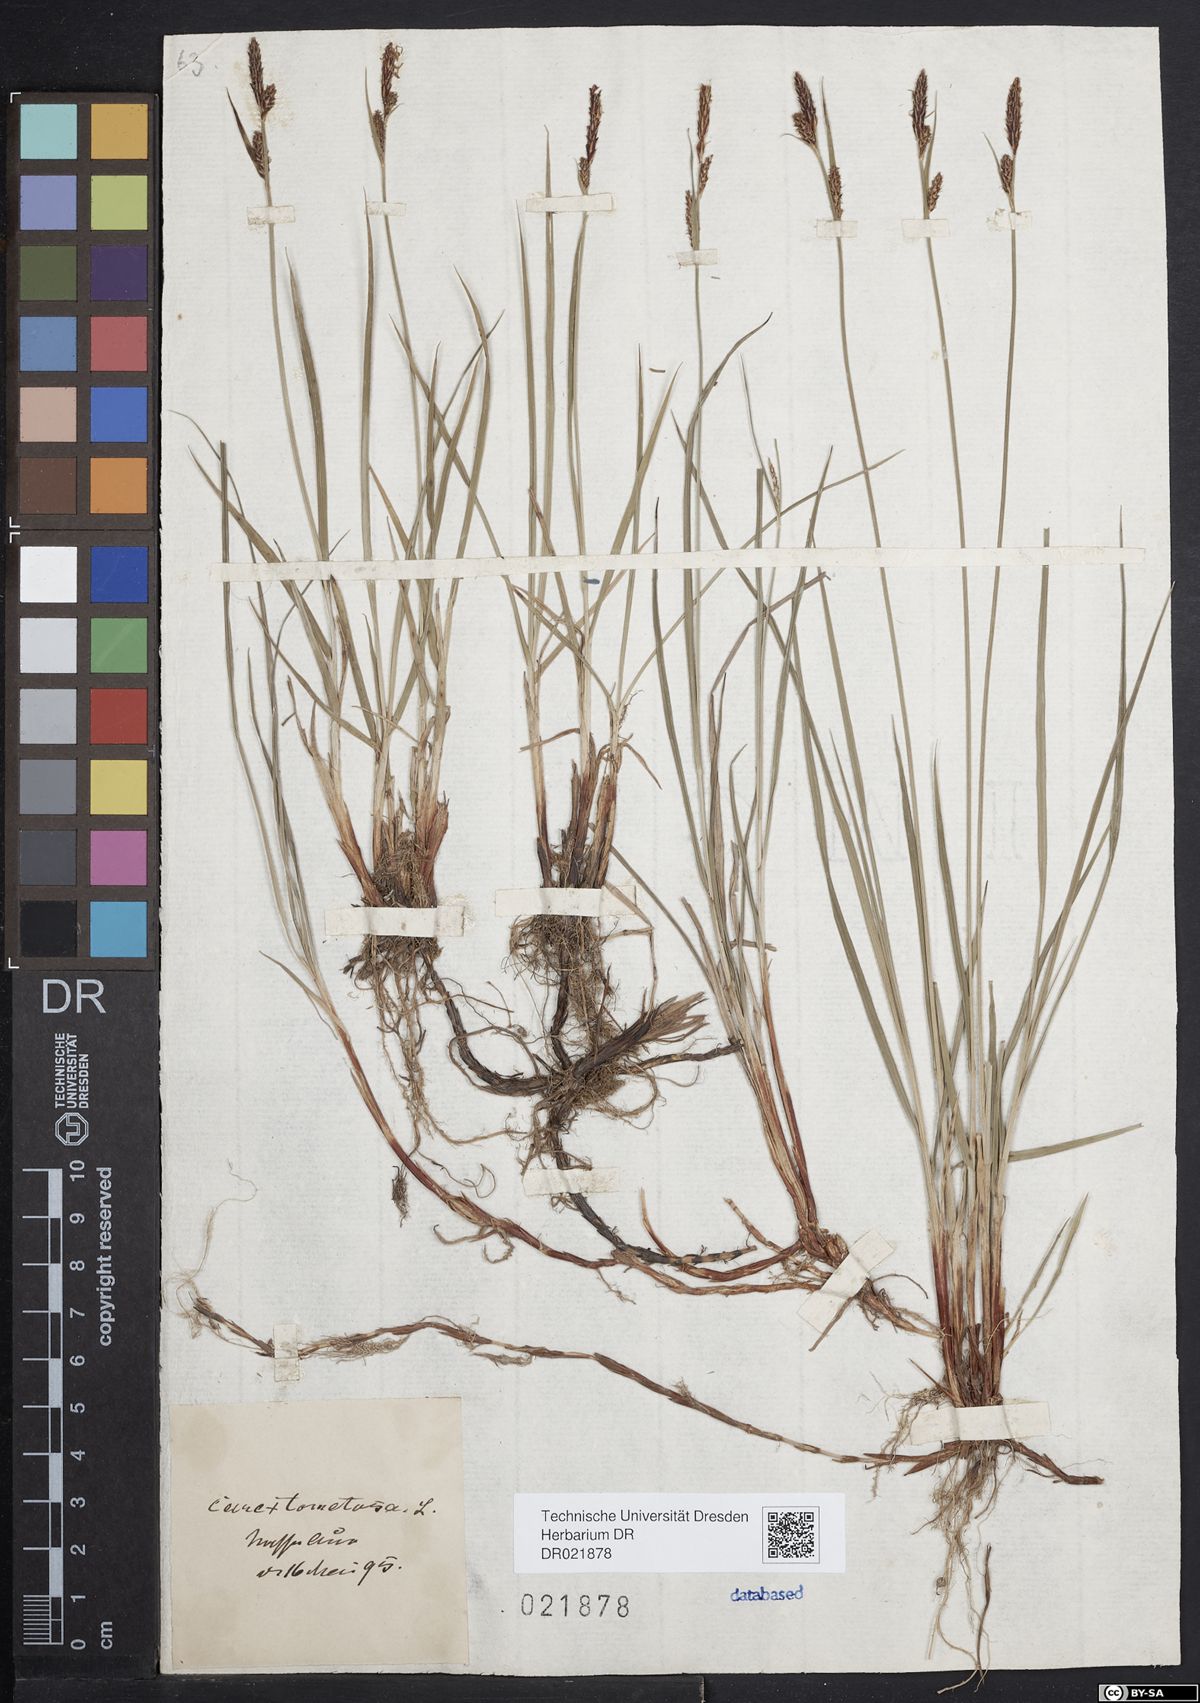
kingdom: Plantae
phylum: Tracheophyta
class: Liliopsida
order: Poales
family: Cyperaceae
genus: Carex
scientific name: Carex tomentosa
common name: Downy-fruited sedge
